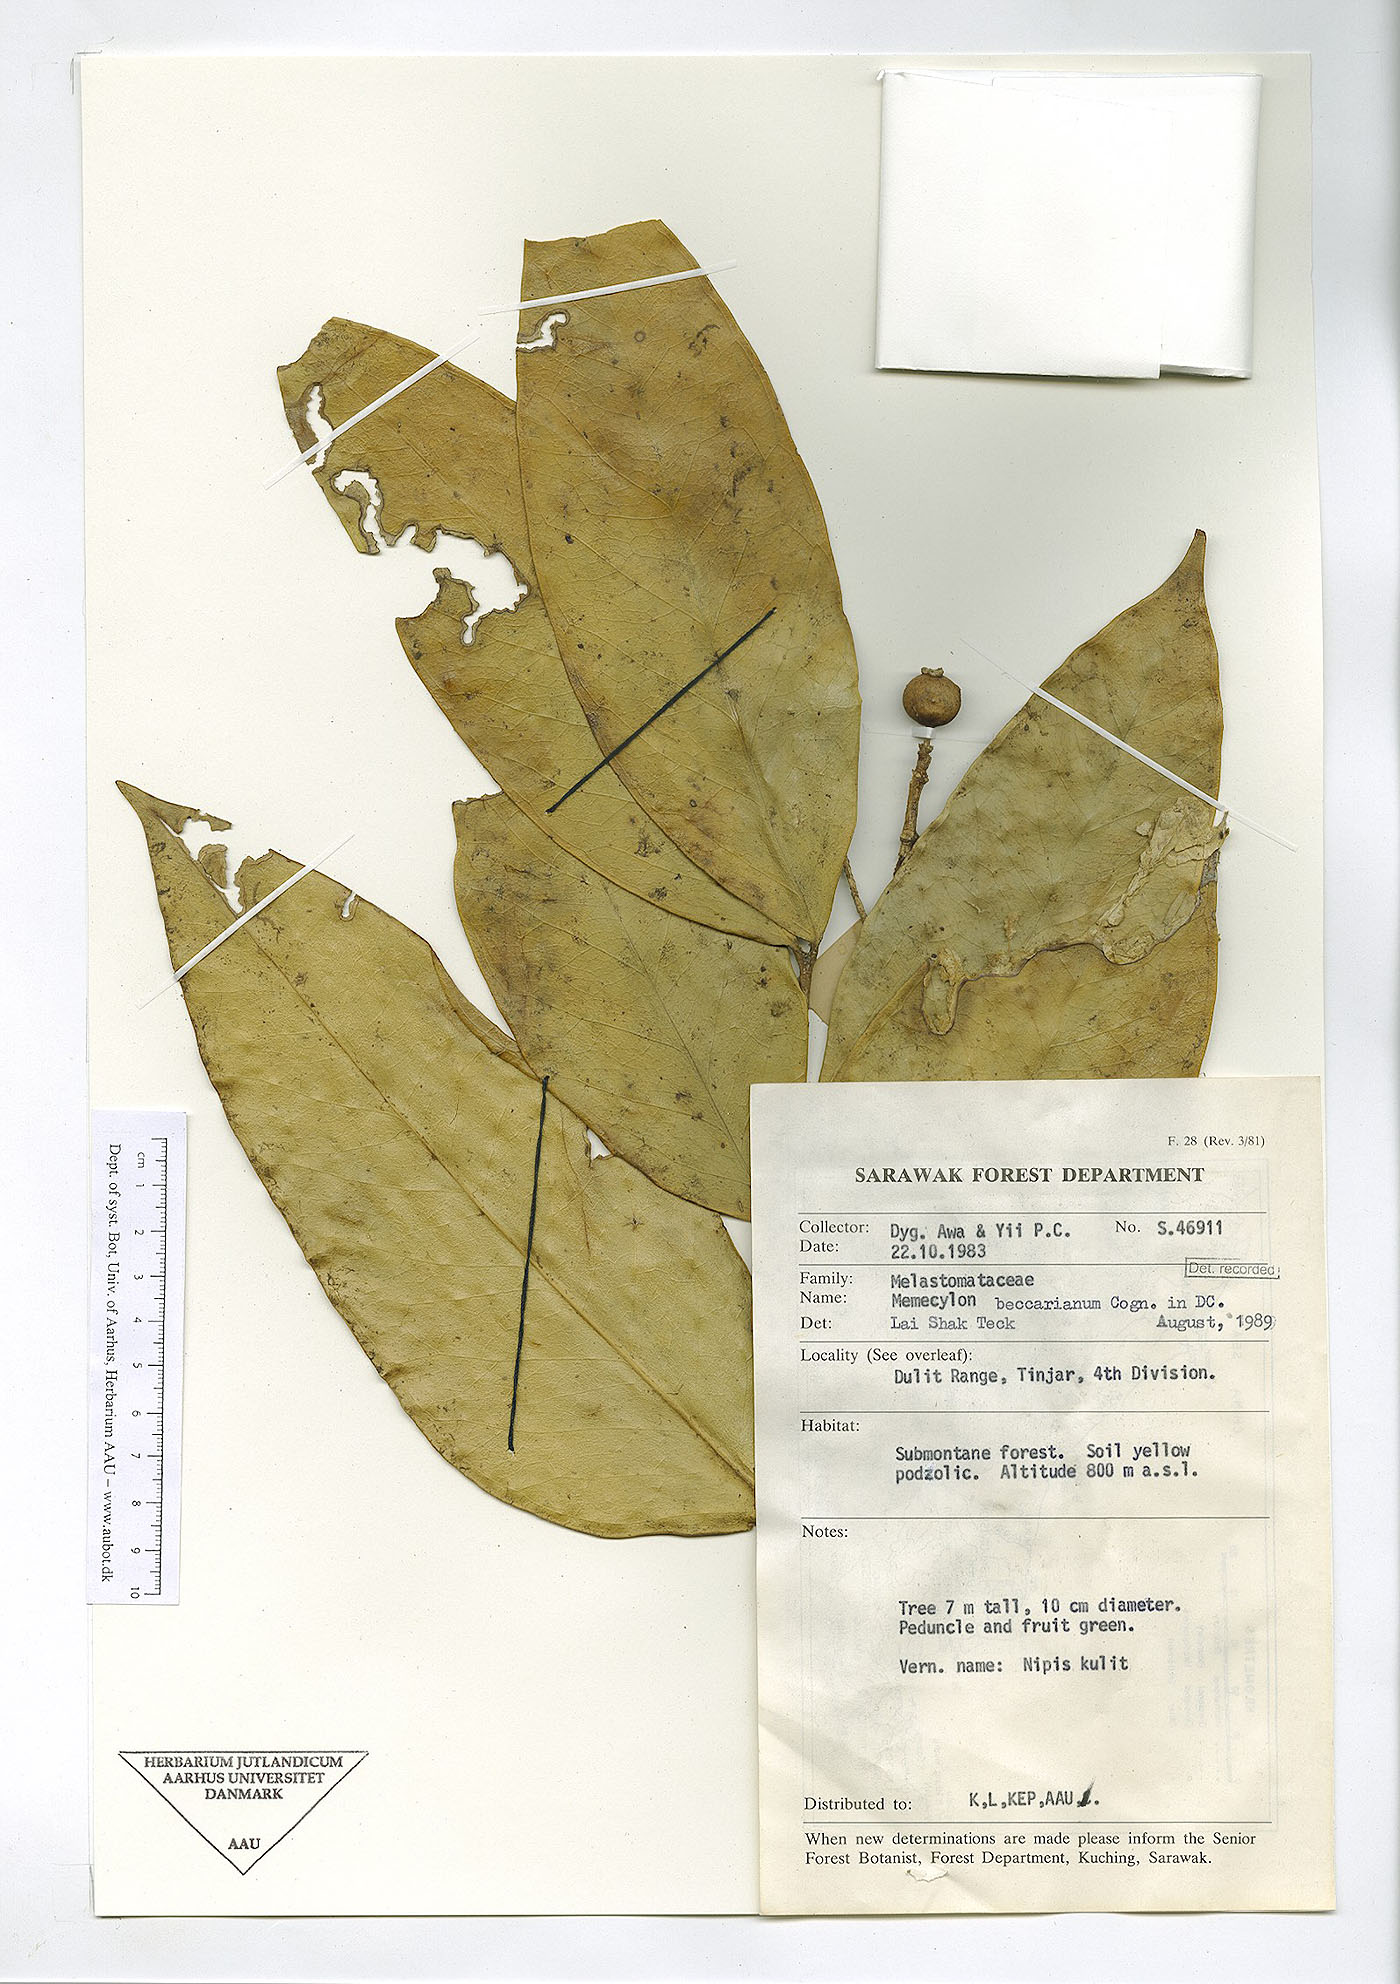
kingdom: Plantae
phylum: Tracheophyta
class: Magnoliopsida
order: Myrtales
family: Melastomataceae
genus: Memecylon
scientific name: Memecylon beccarianum
